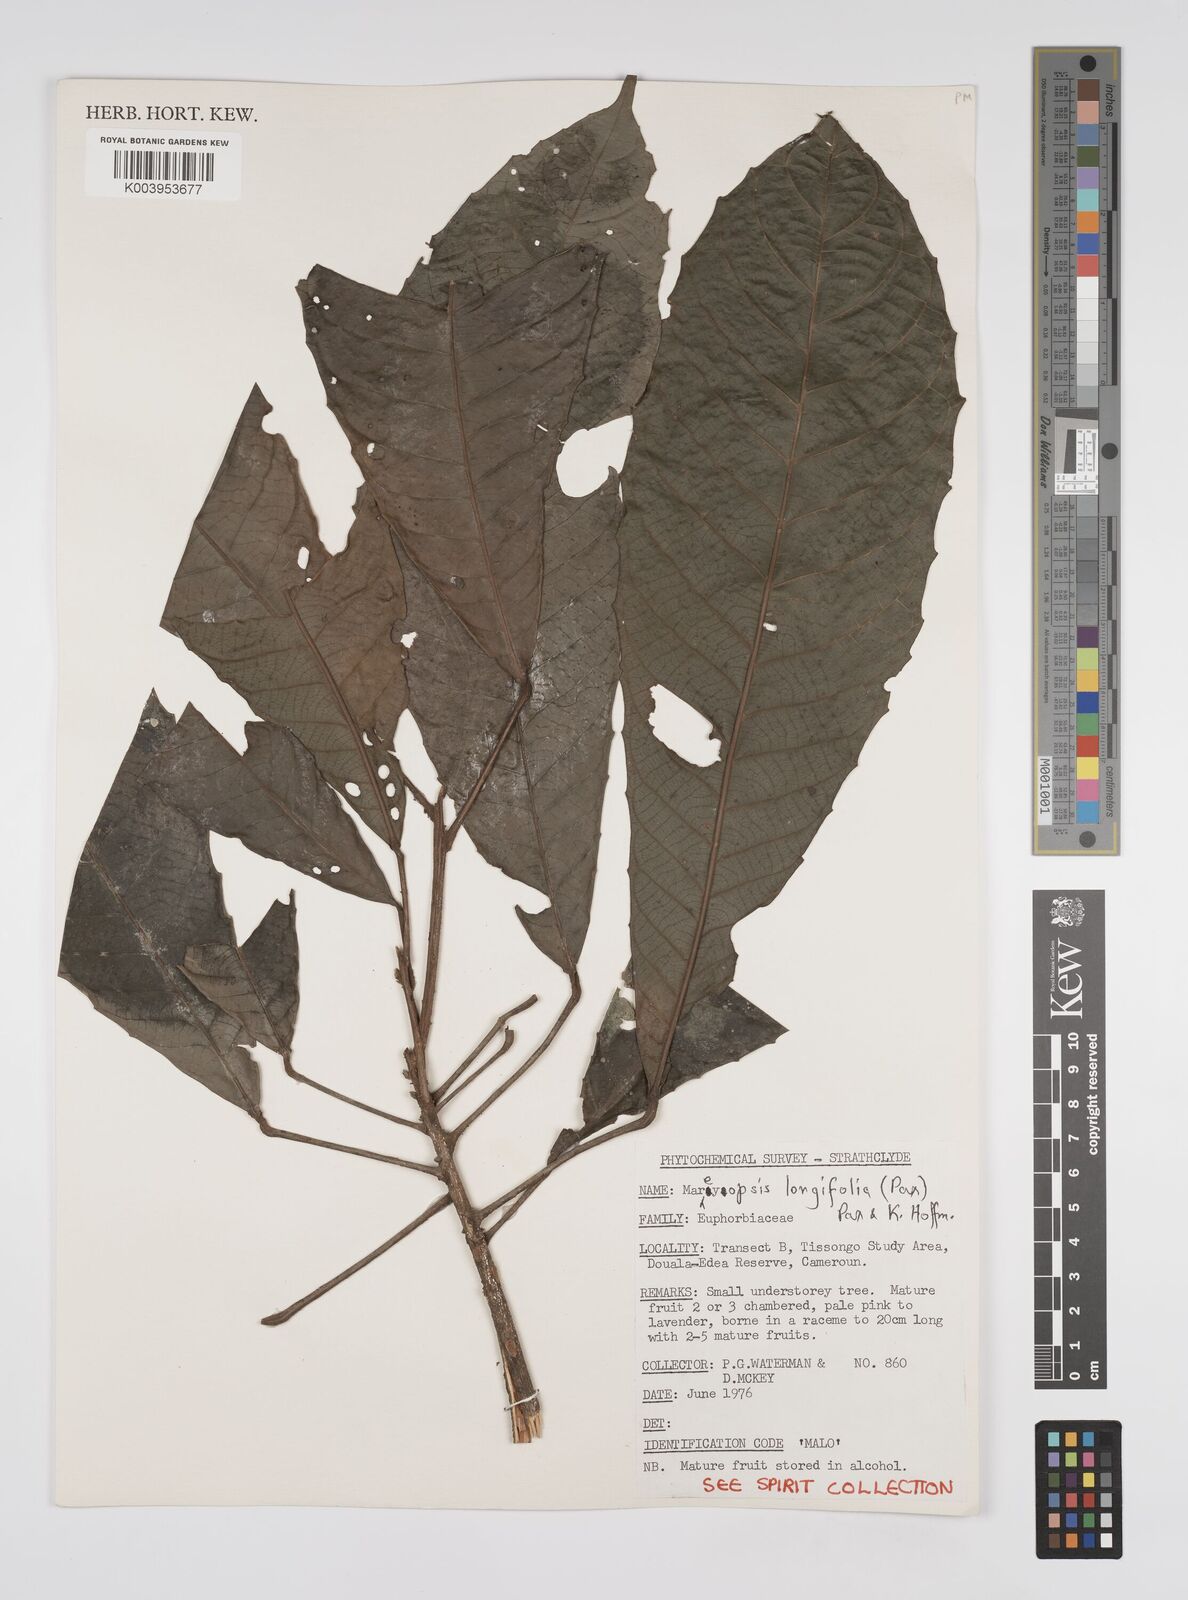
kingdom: Plantae
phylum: Tracheophyta
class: Magnoliopsida
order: Malpighiales
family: Euphorbiaceae
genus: Mareyopsis
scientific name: Mareyopsis longifolia
